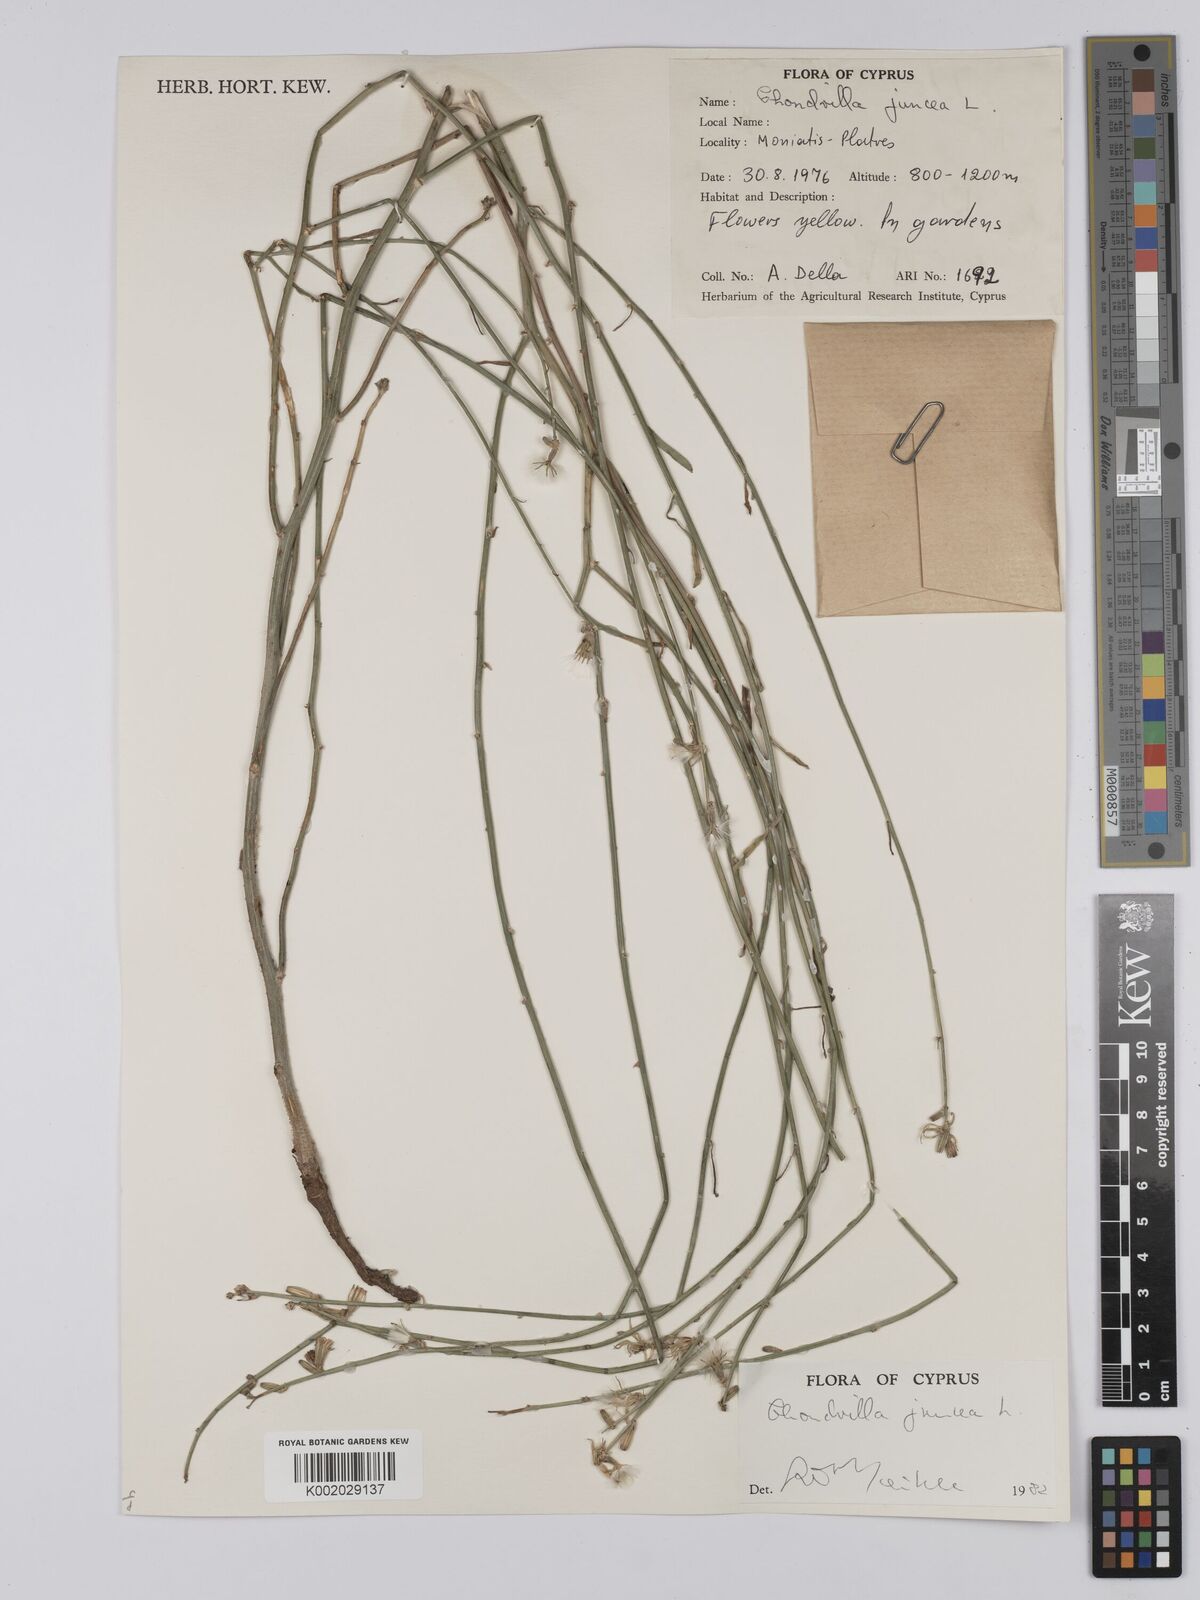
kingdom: Plantae
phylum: Tracheophyta
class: Magnoliopsida
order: Asterales
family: Asteraceae
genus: Chondrilla
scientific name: Chondrilla juncea
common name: Skeleton weed
